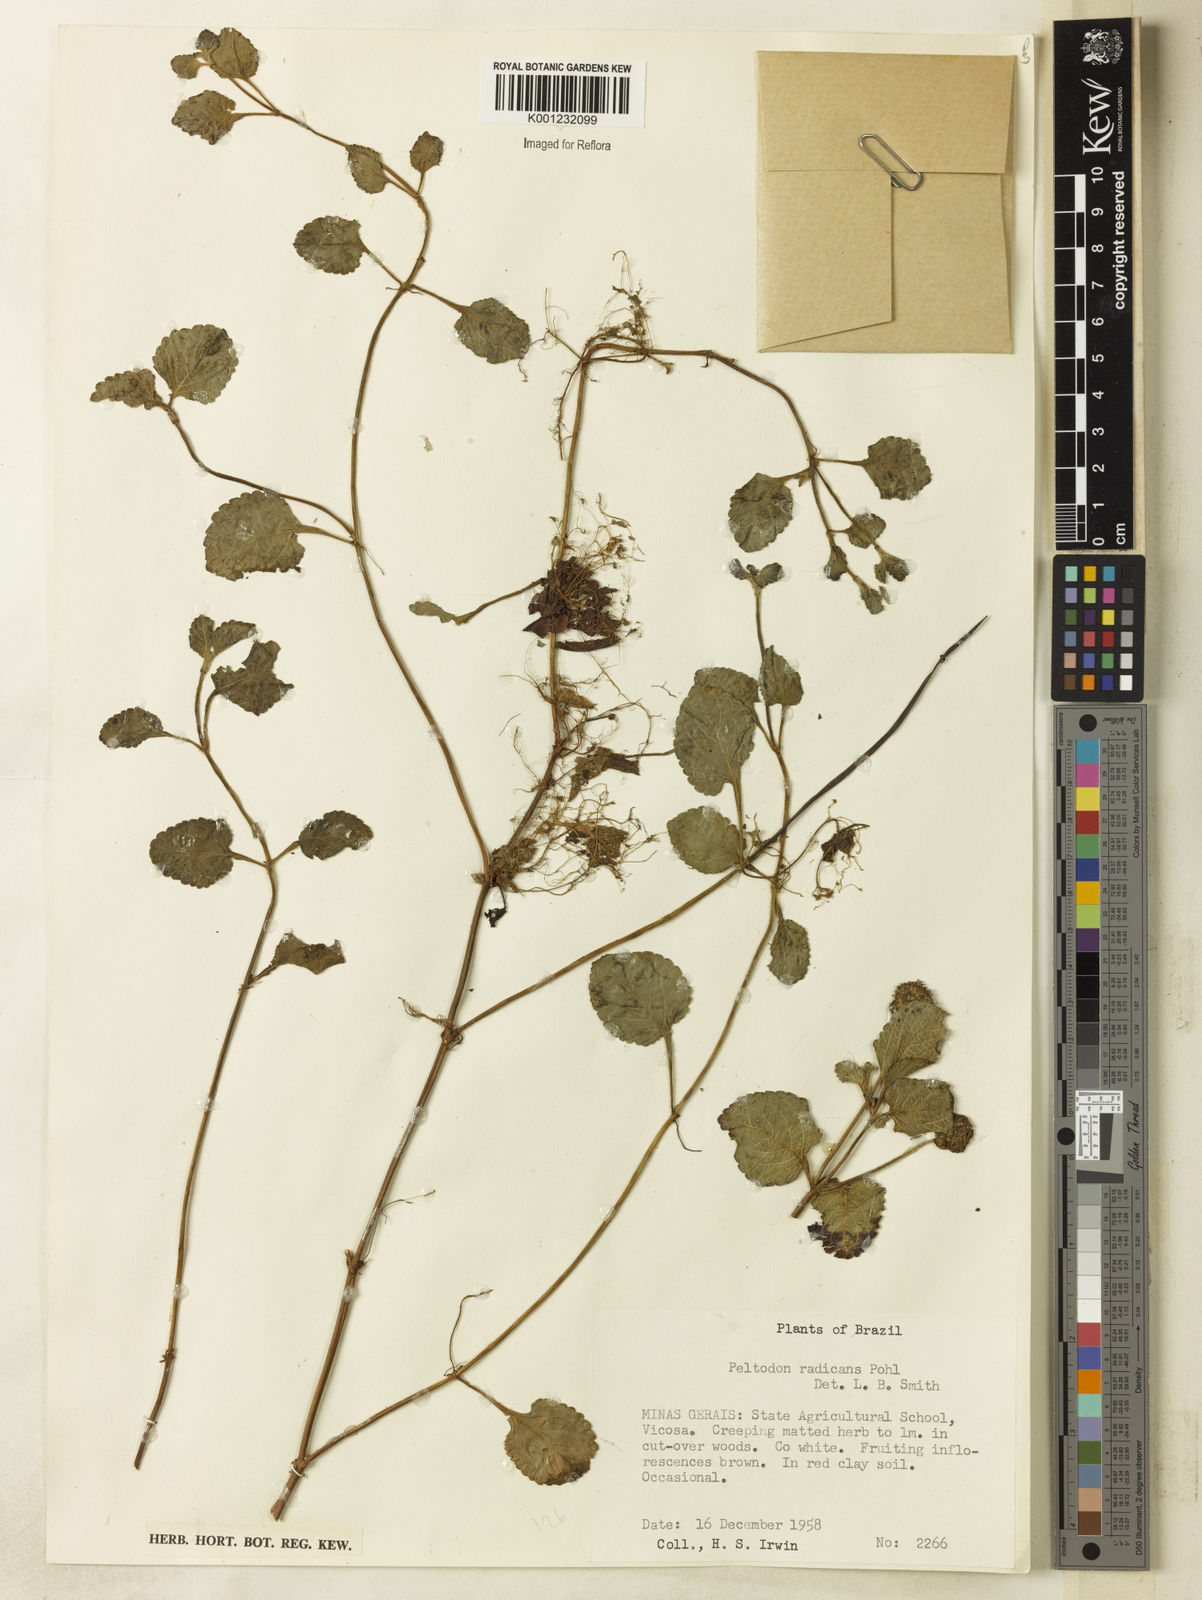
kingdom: Plantae
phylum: Tracheophyta
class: Magnoliopsida
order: Lamiales
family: Lamiaceae
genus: Hyptis
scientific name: Hyptis radicans
